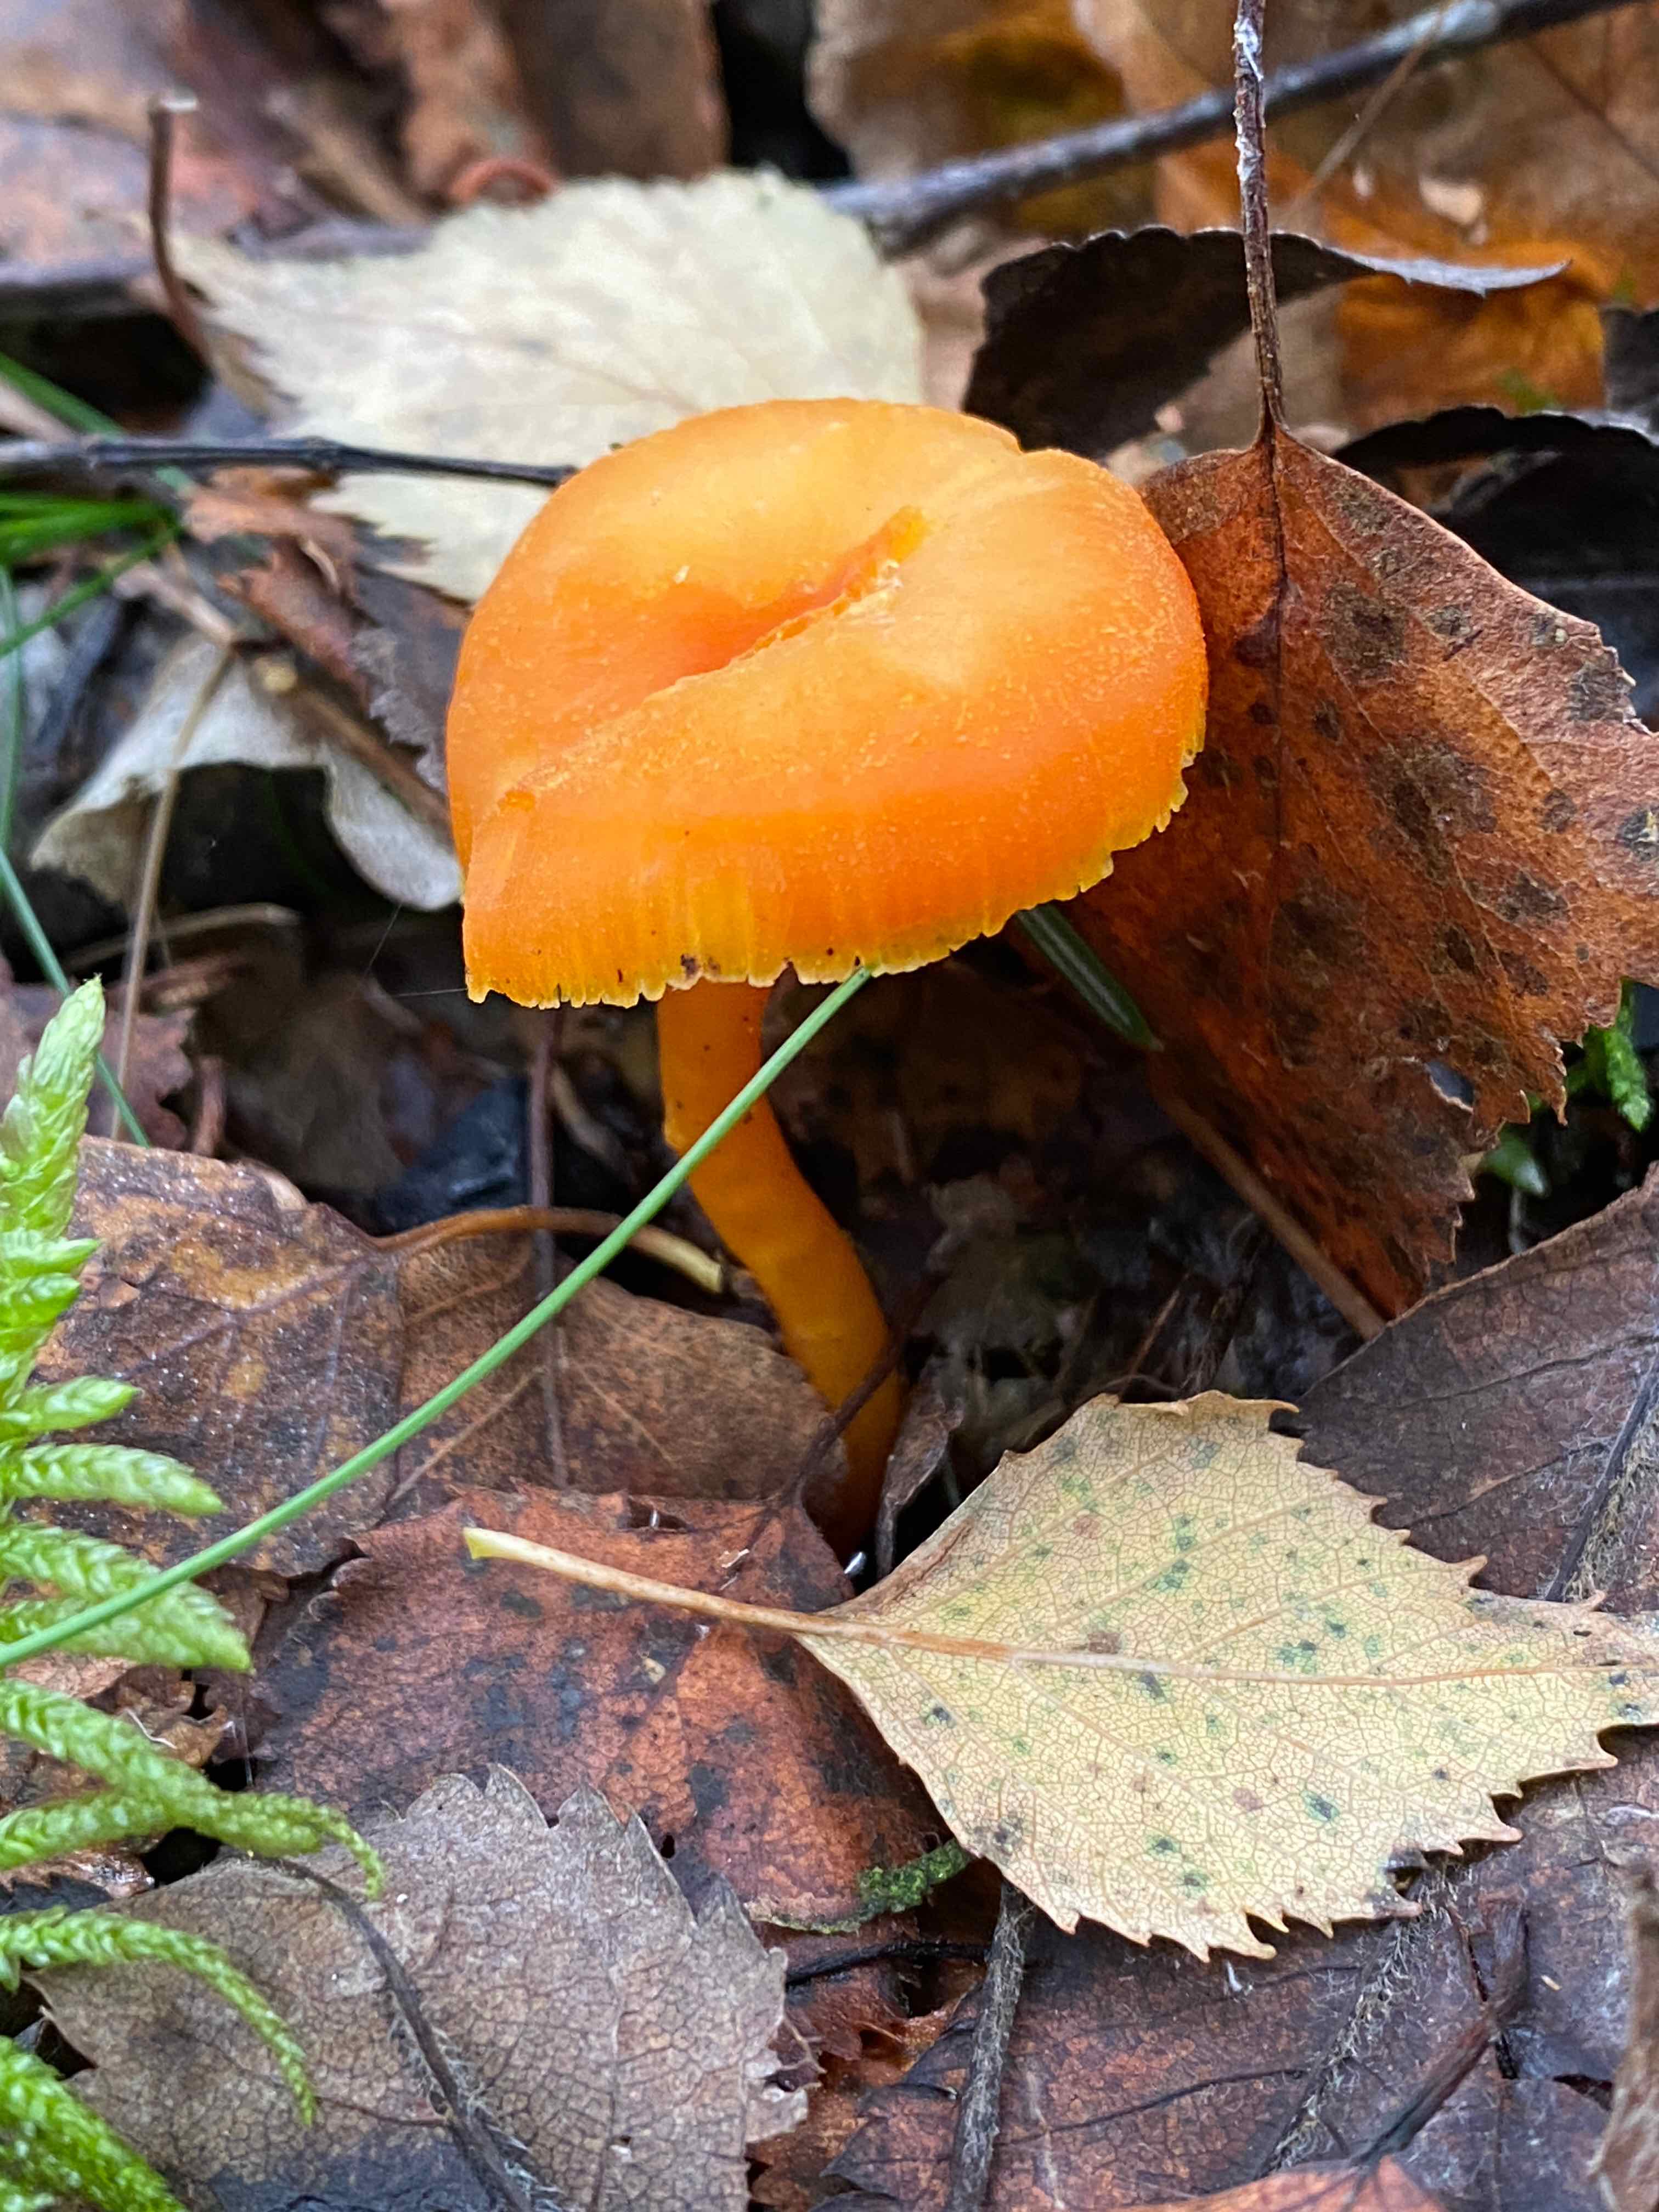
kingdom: Fungi
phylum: Basidiomycota
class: Agaricomycetes
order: Agaricales
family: Hygrophoraceae
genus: Hygrocybe
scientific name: Hygrocybe miniata
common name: mønje-vokshat
